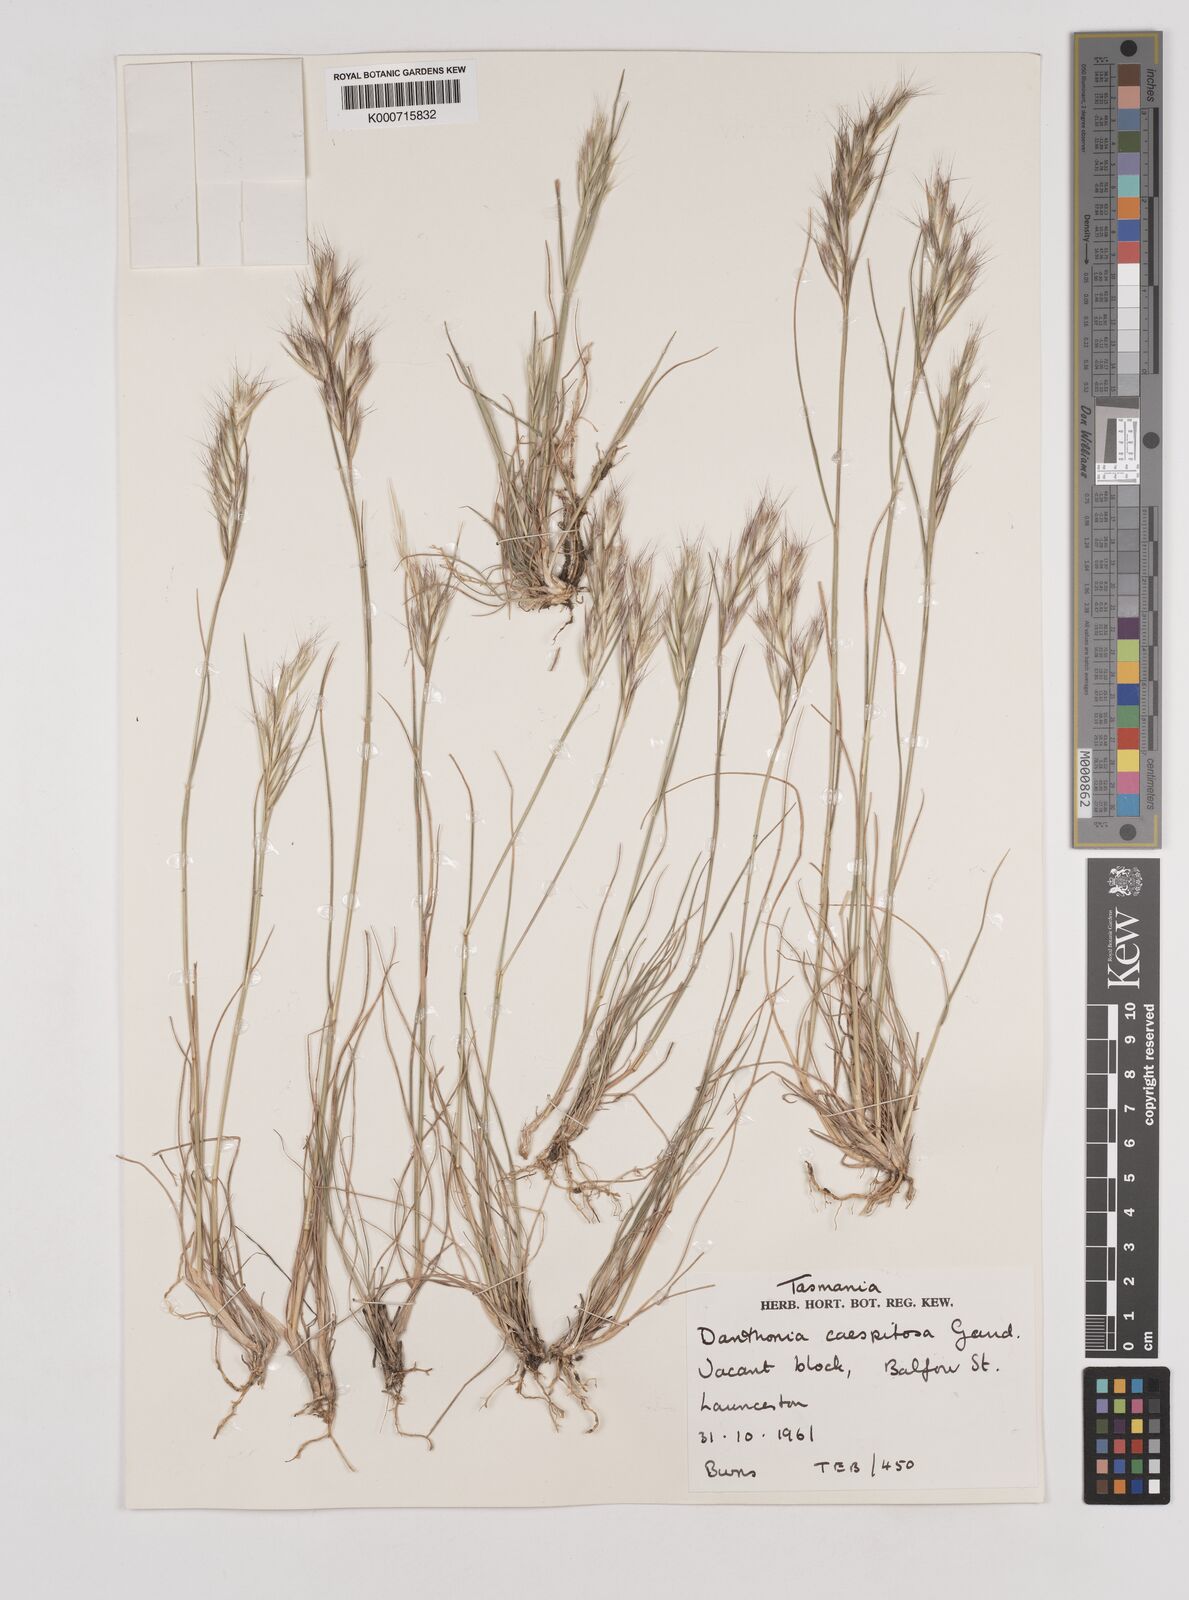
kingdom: Plantae
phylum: Tracheophyta
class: Liliopsida
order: Poales
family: Poaceae
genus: Rytidosperma
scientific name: Rytidosperma caespitosum
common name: Tufted wallaby grass
